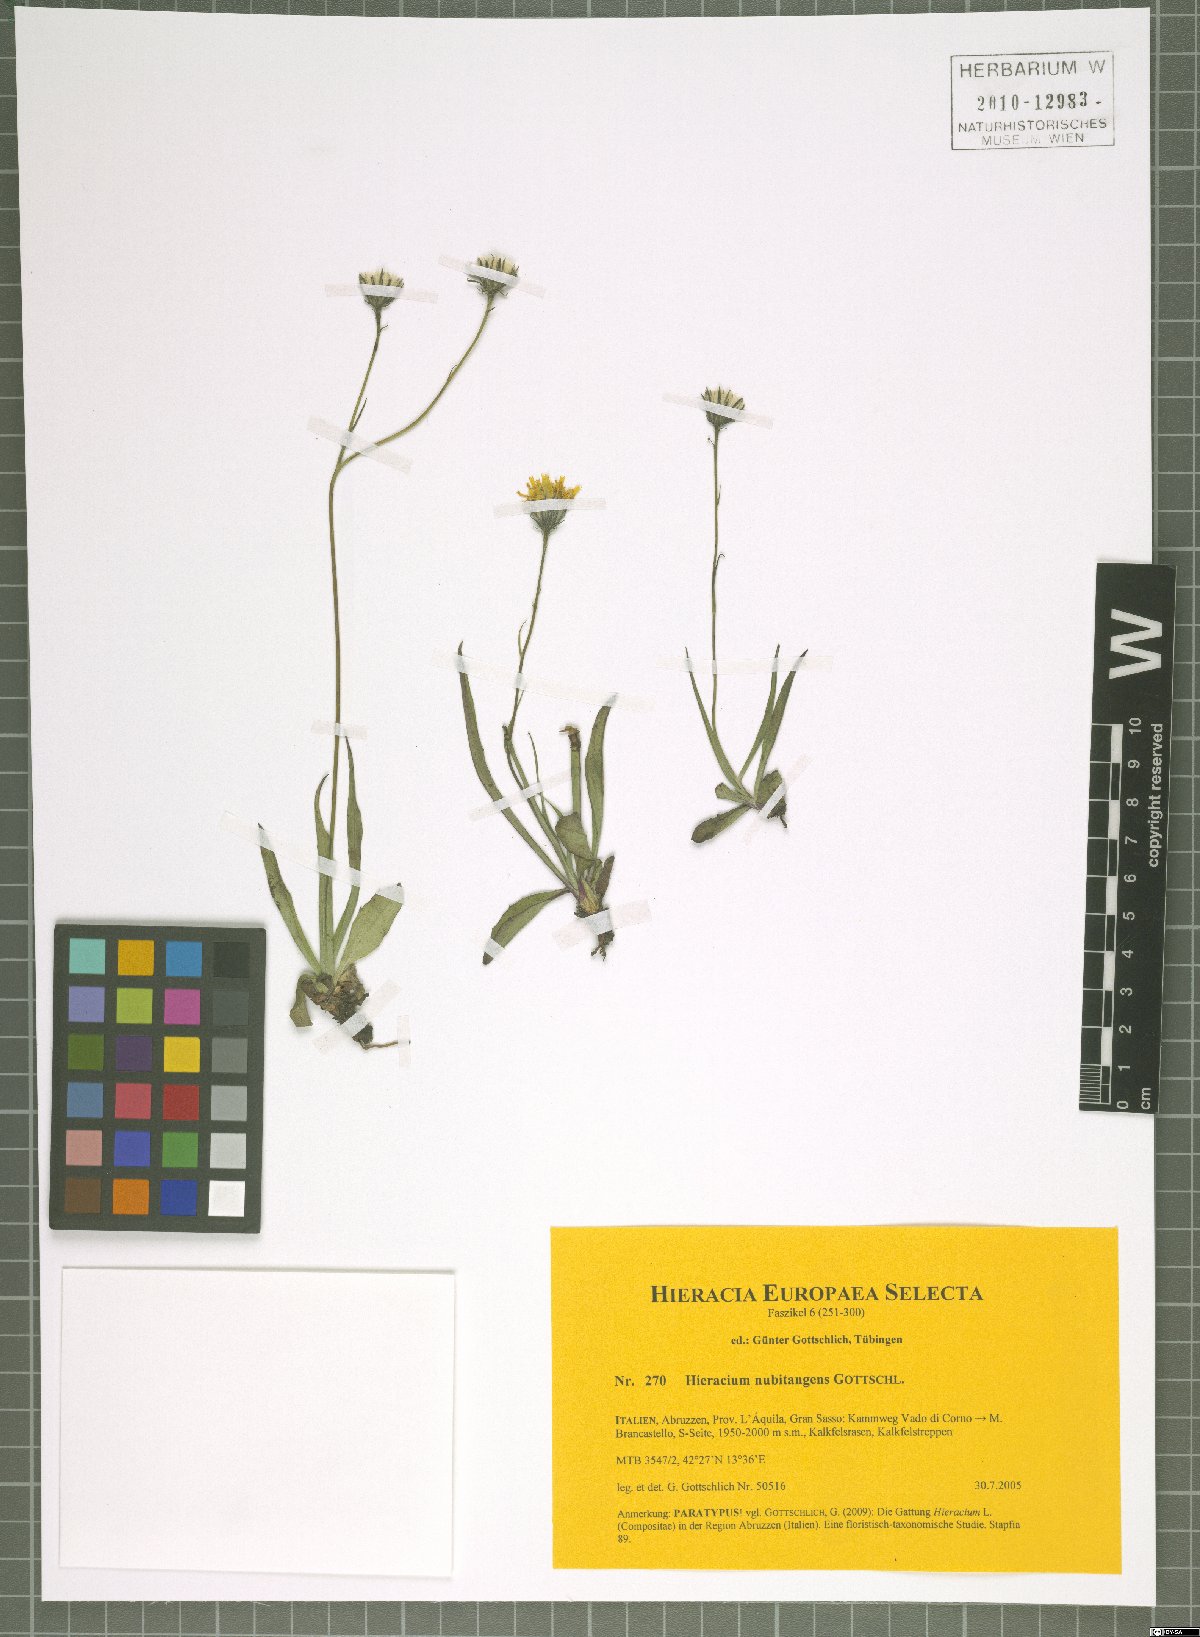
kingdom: Plantae
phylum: Tracheophyta
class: Magnoliopsida
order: Asterales
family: Asteraceae
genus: Hieracium
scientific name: Hieracium nubitangens
